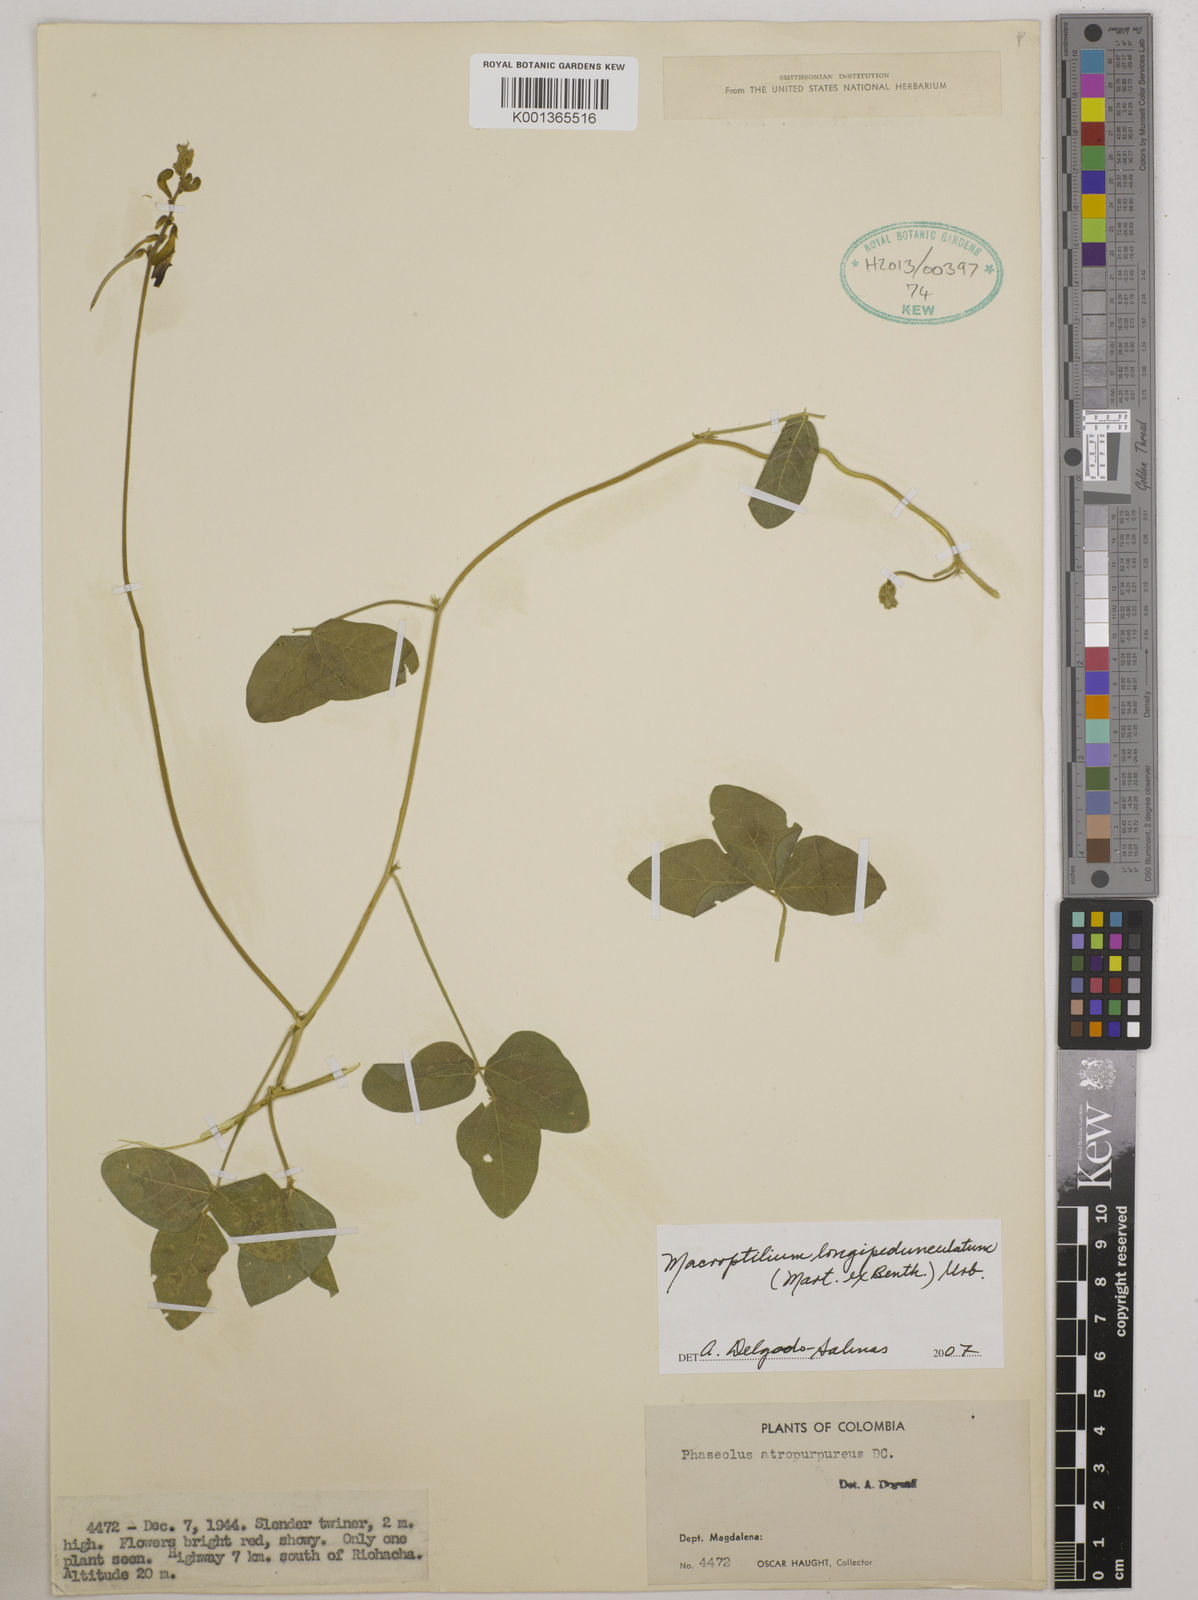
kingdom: Plantae
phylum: Tracheophyta
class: Magnoliopsida
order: Fabales
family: Fabaceae
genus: Macroptilium
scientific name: Macroptilium longepedunculatum
